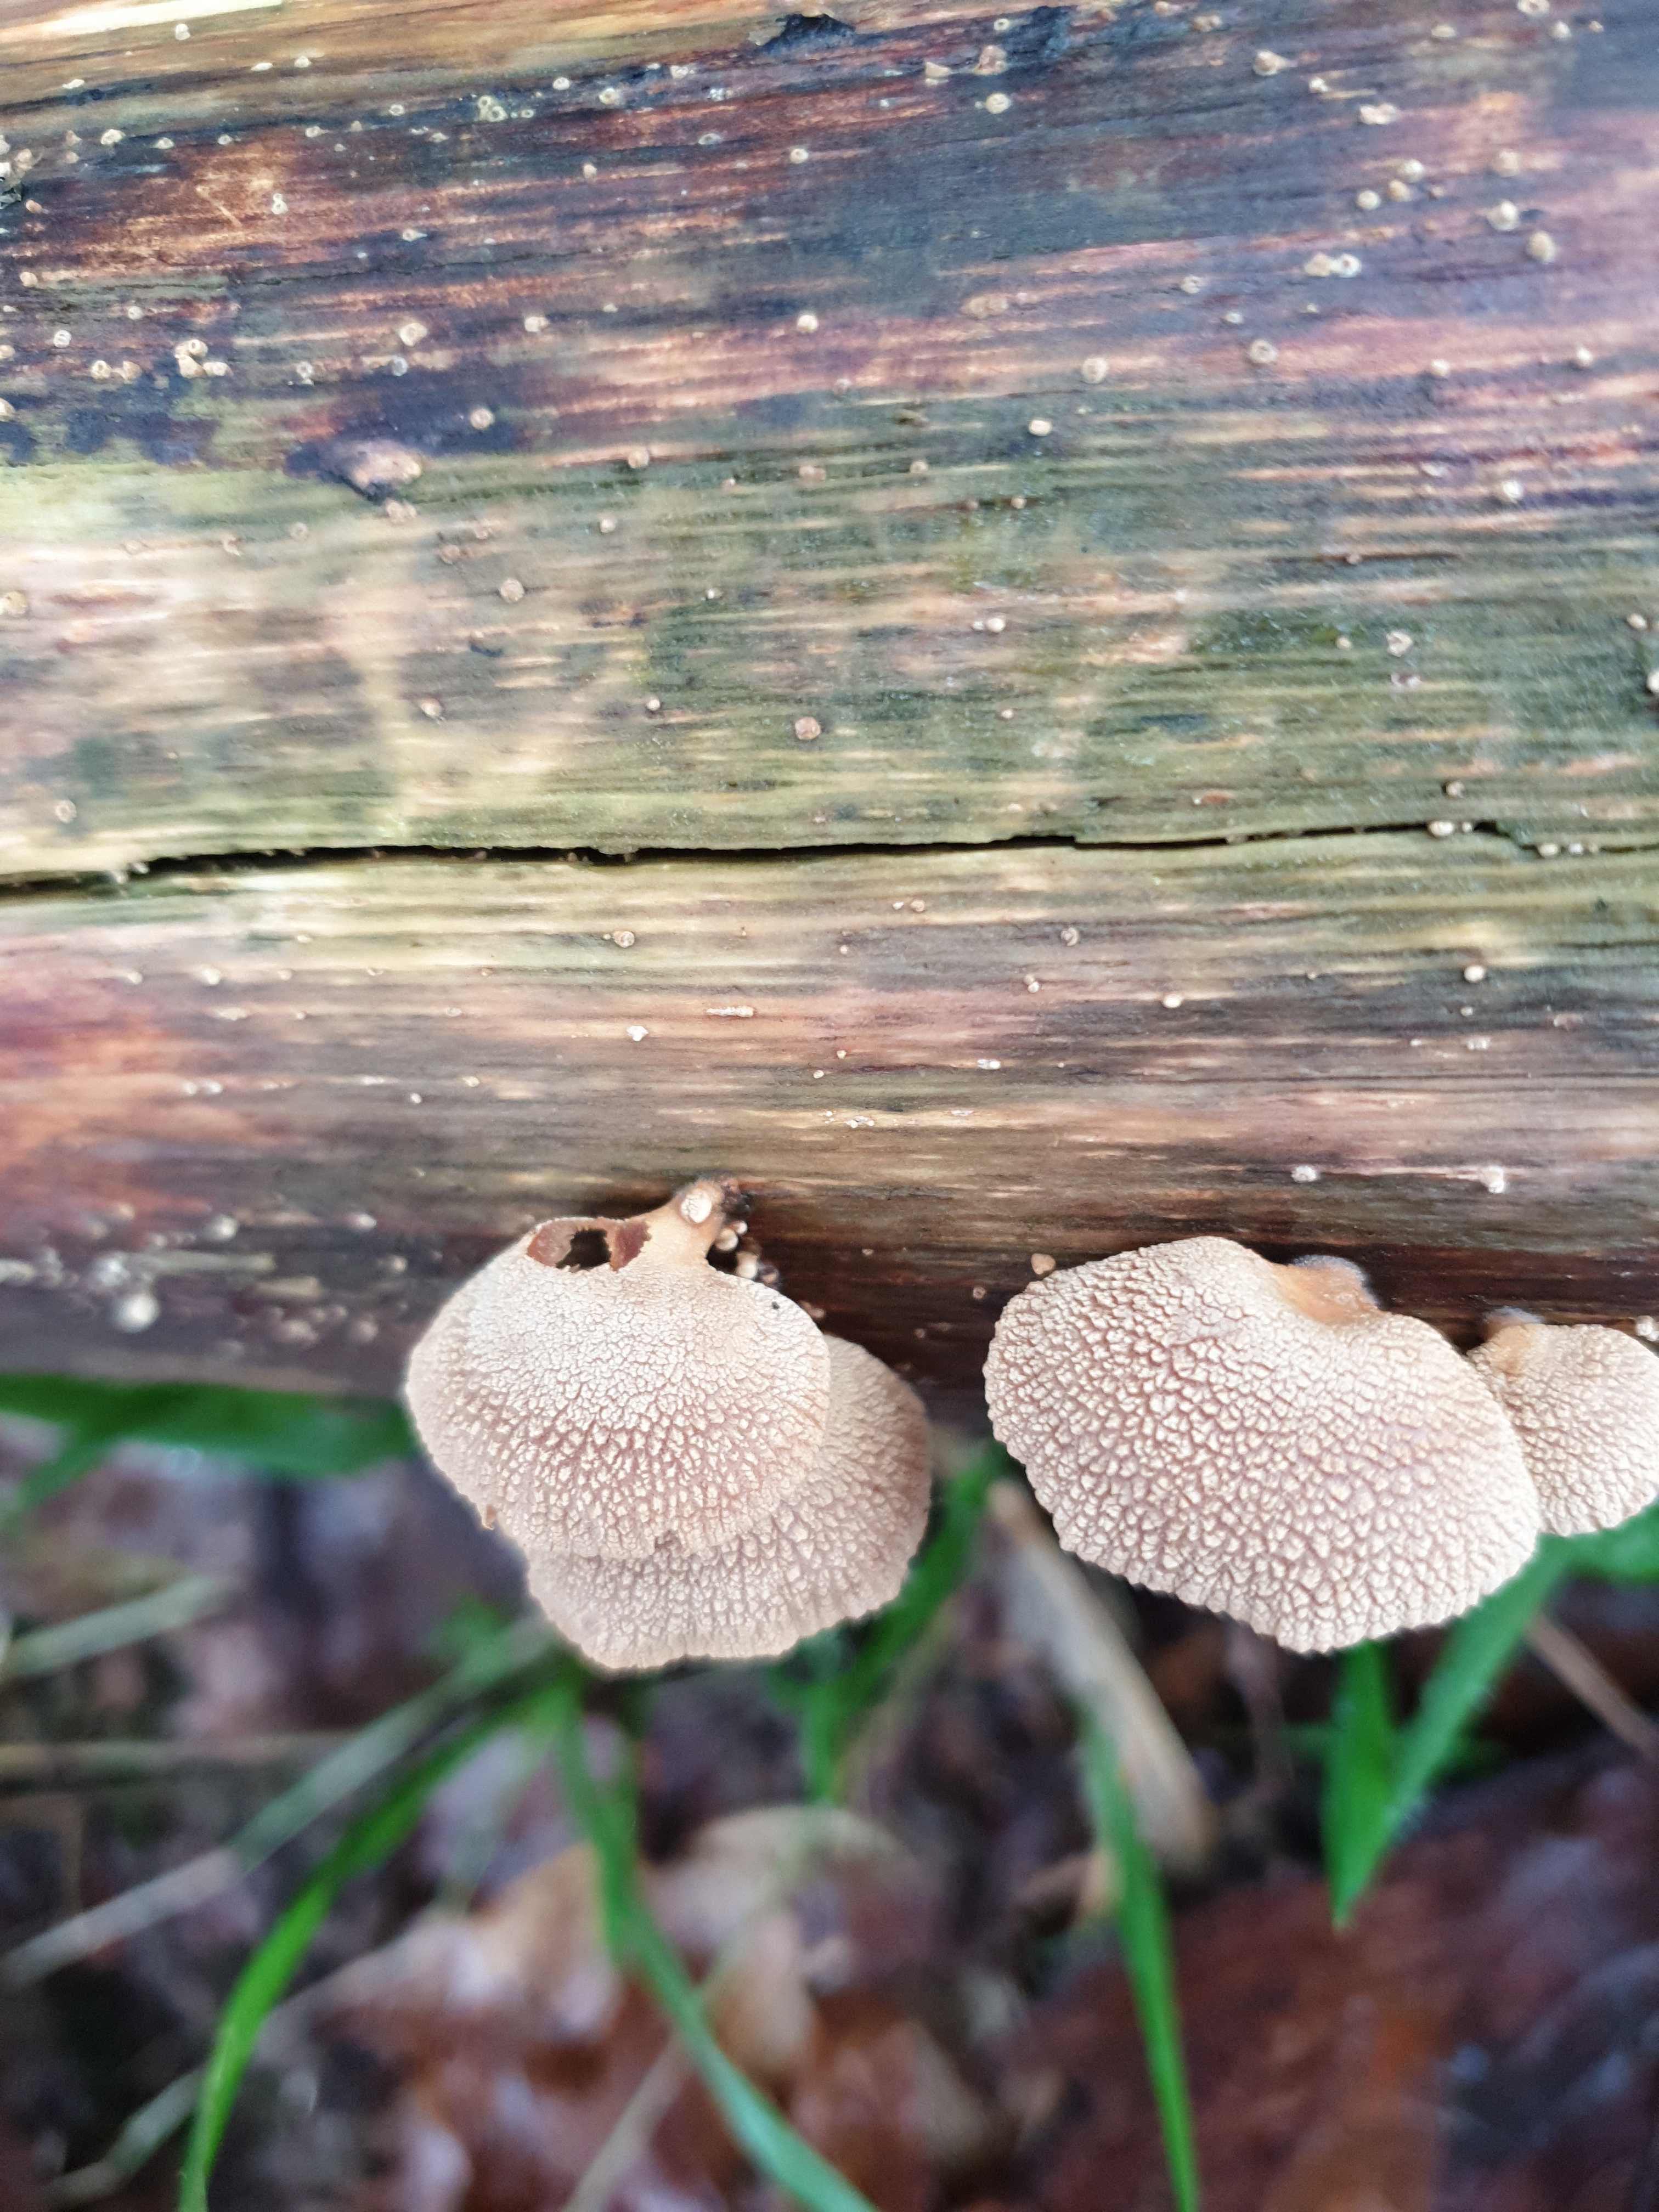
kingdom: Fungi
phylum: Basidiomycota
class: Agaricomycetes
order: Agaricales
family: Mycenaceae
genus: Panellus
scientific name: Panellus stipticus
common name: kliddet epaulethat
